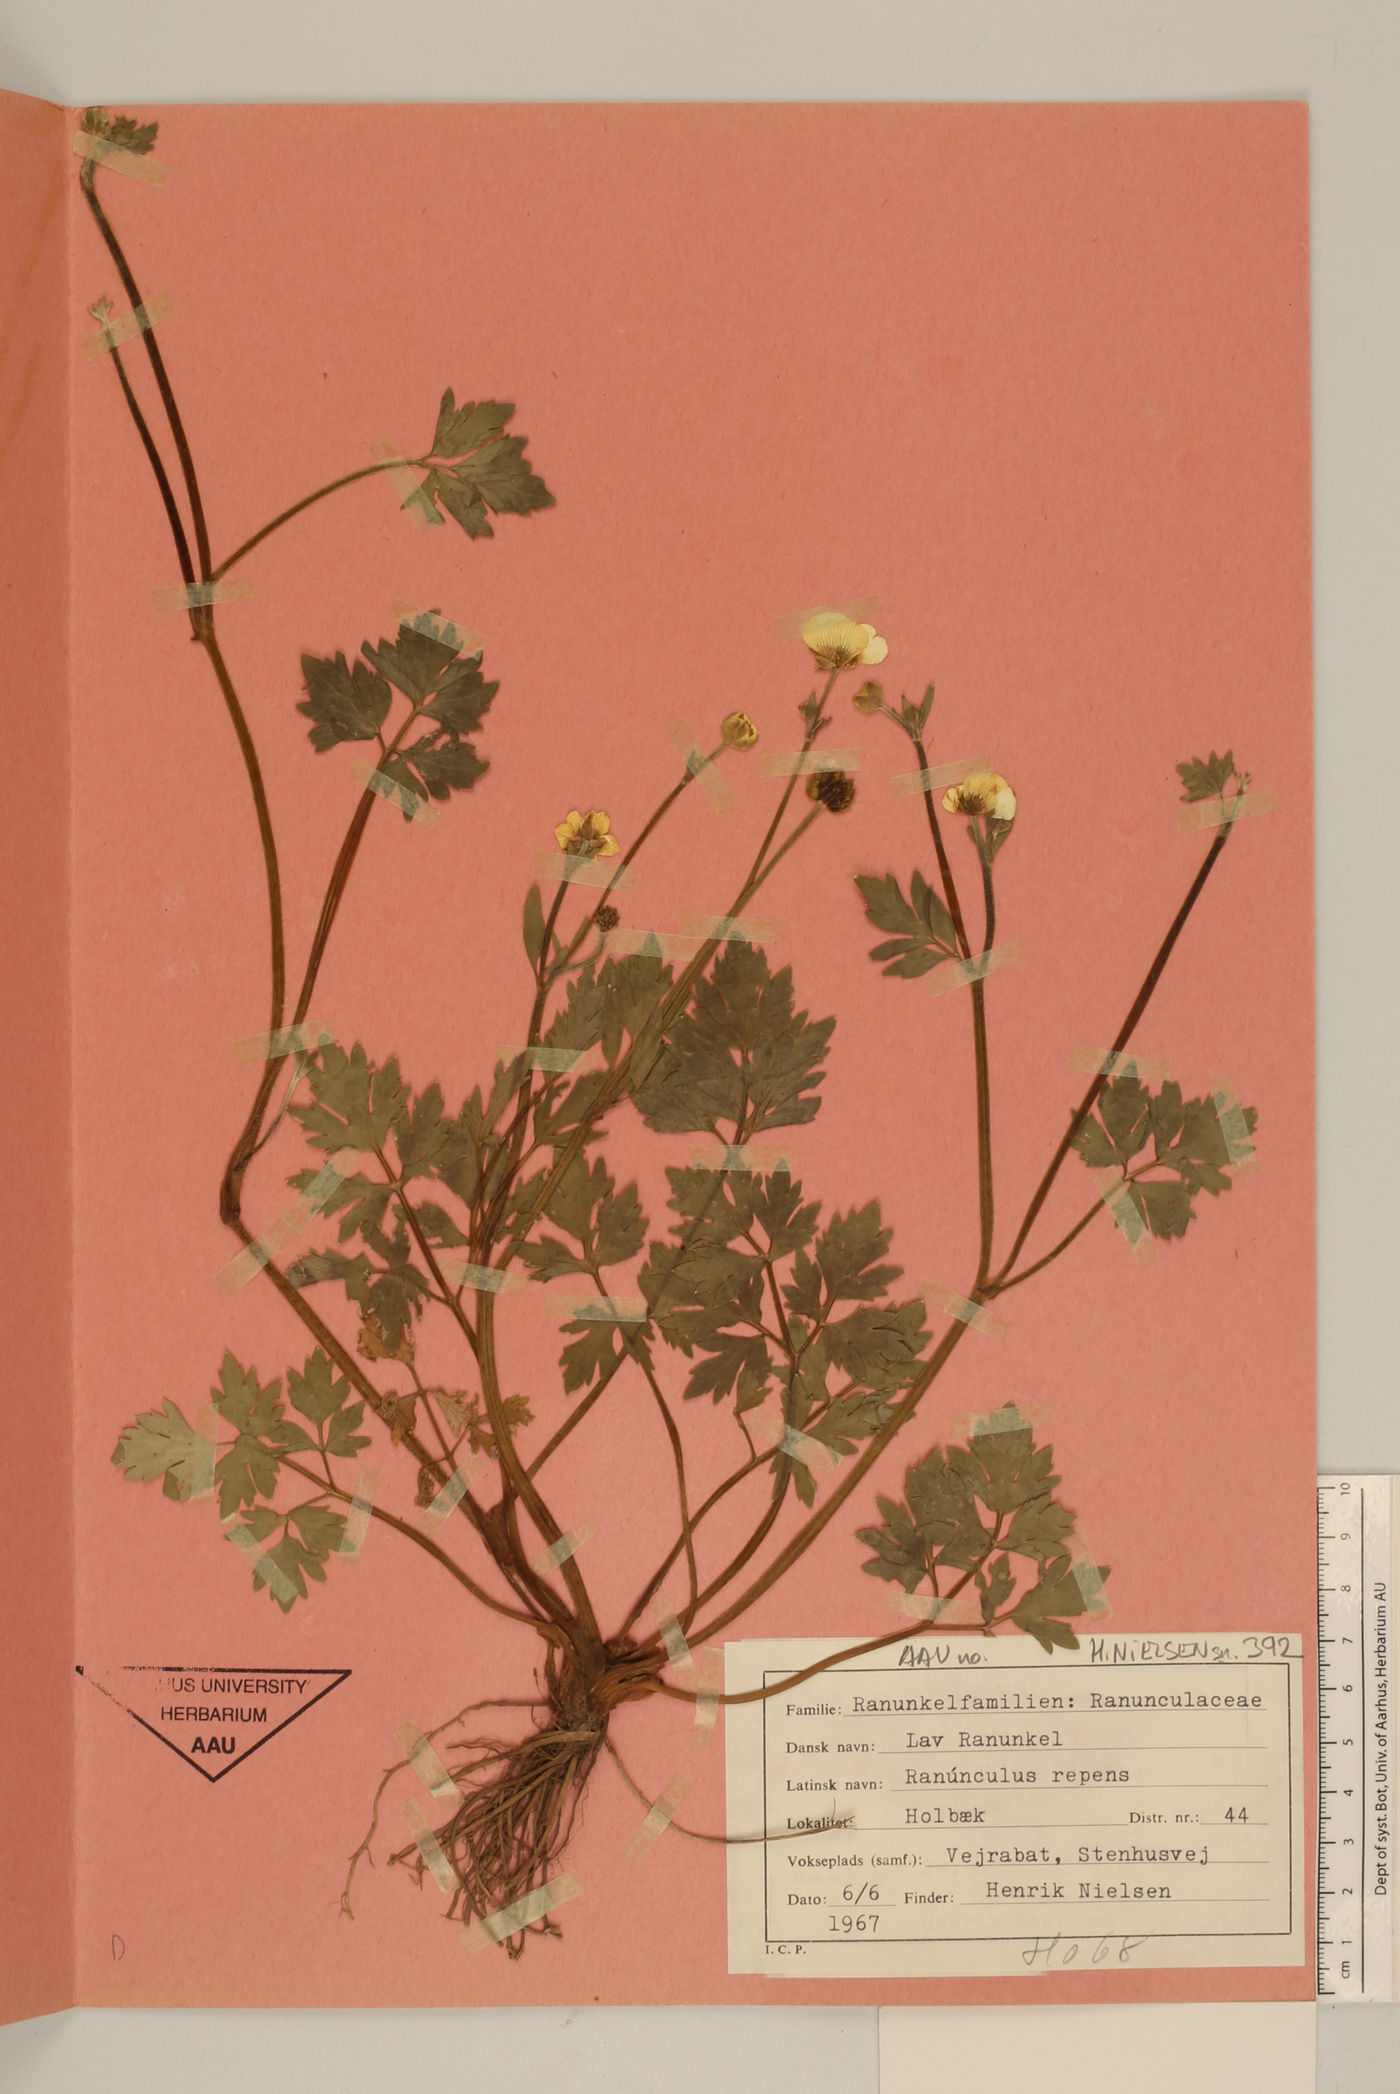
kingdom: Plantae
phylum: Tracheophyta
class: Magnoliopsida
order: Ranunculales
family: Ranunculaceae
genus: Ranunculus
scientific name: Ranunculus repens
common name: Creeping buttercup
